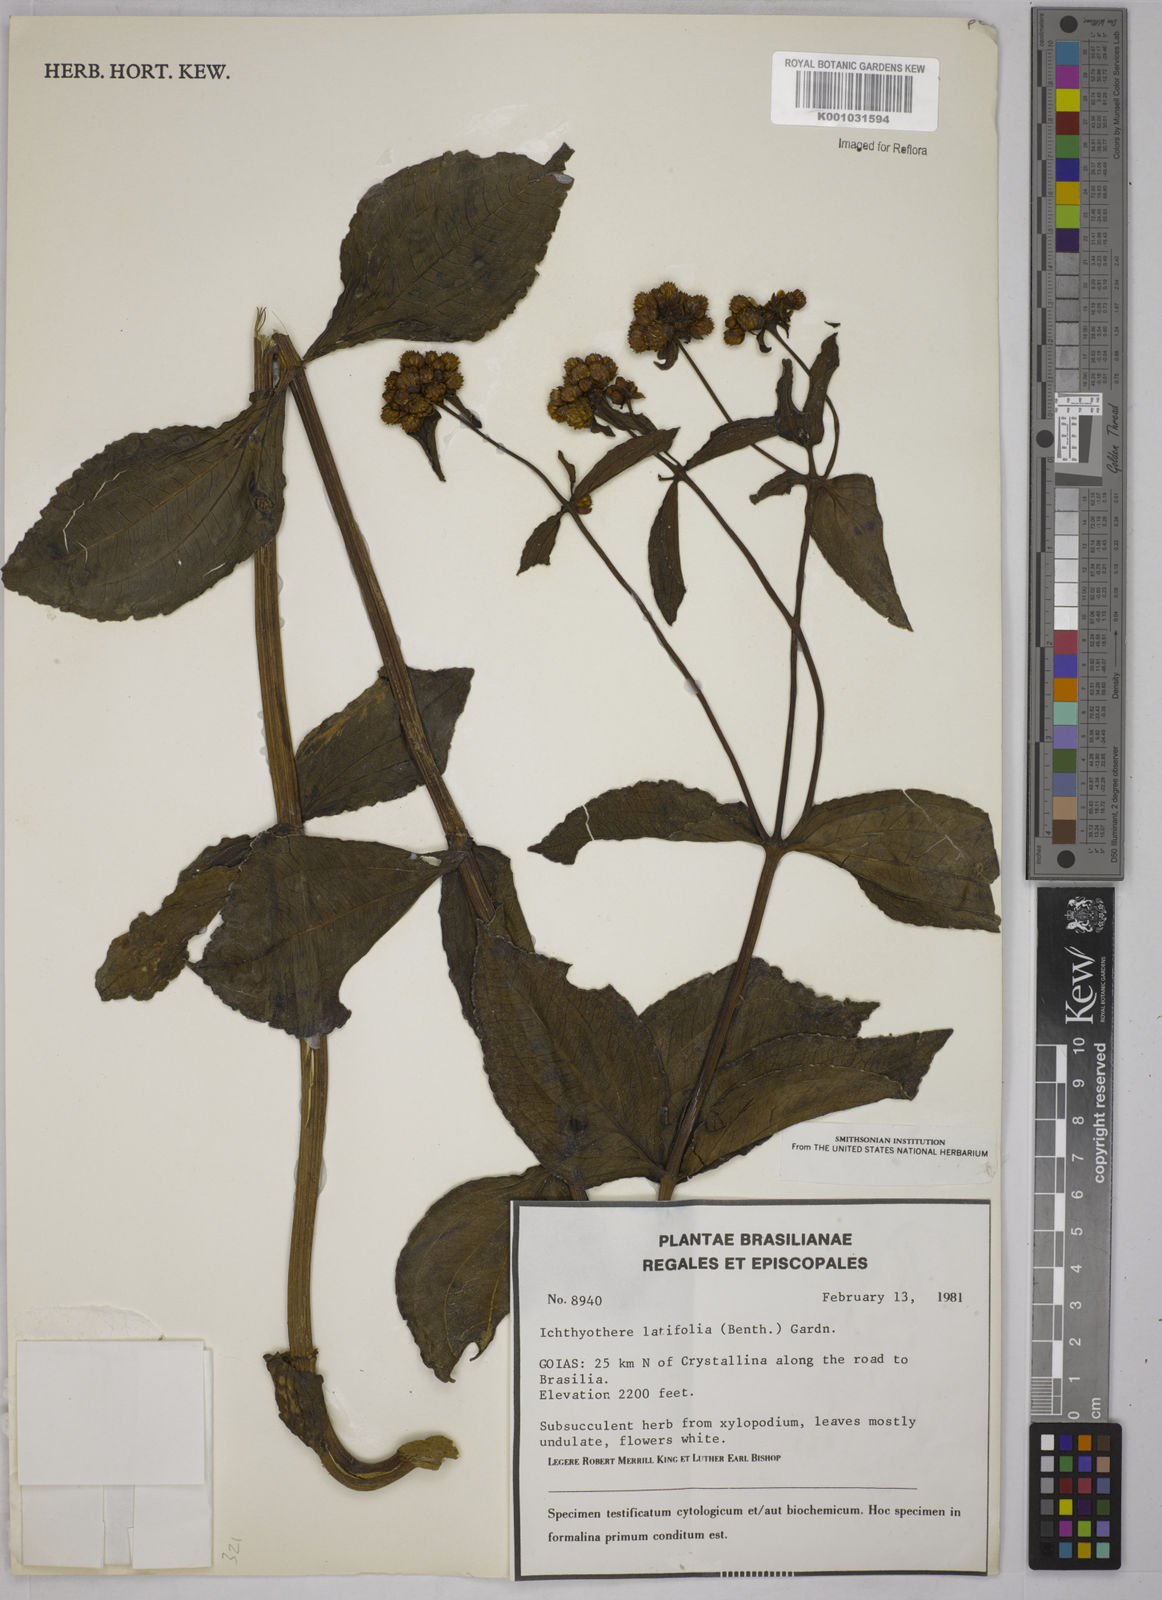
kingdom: Plantae
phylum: Tracheophyta
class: Magnoliopsida
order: Asterales
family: Asteraceae
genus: Ichthyothere
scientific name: Ichthyothere latifolia
